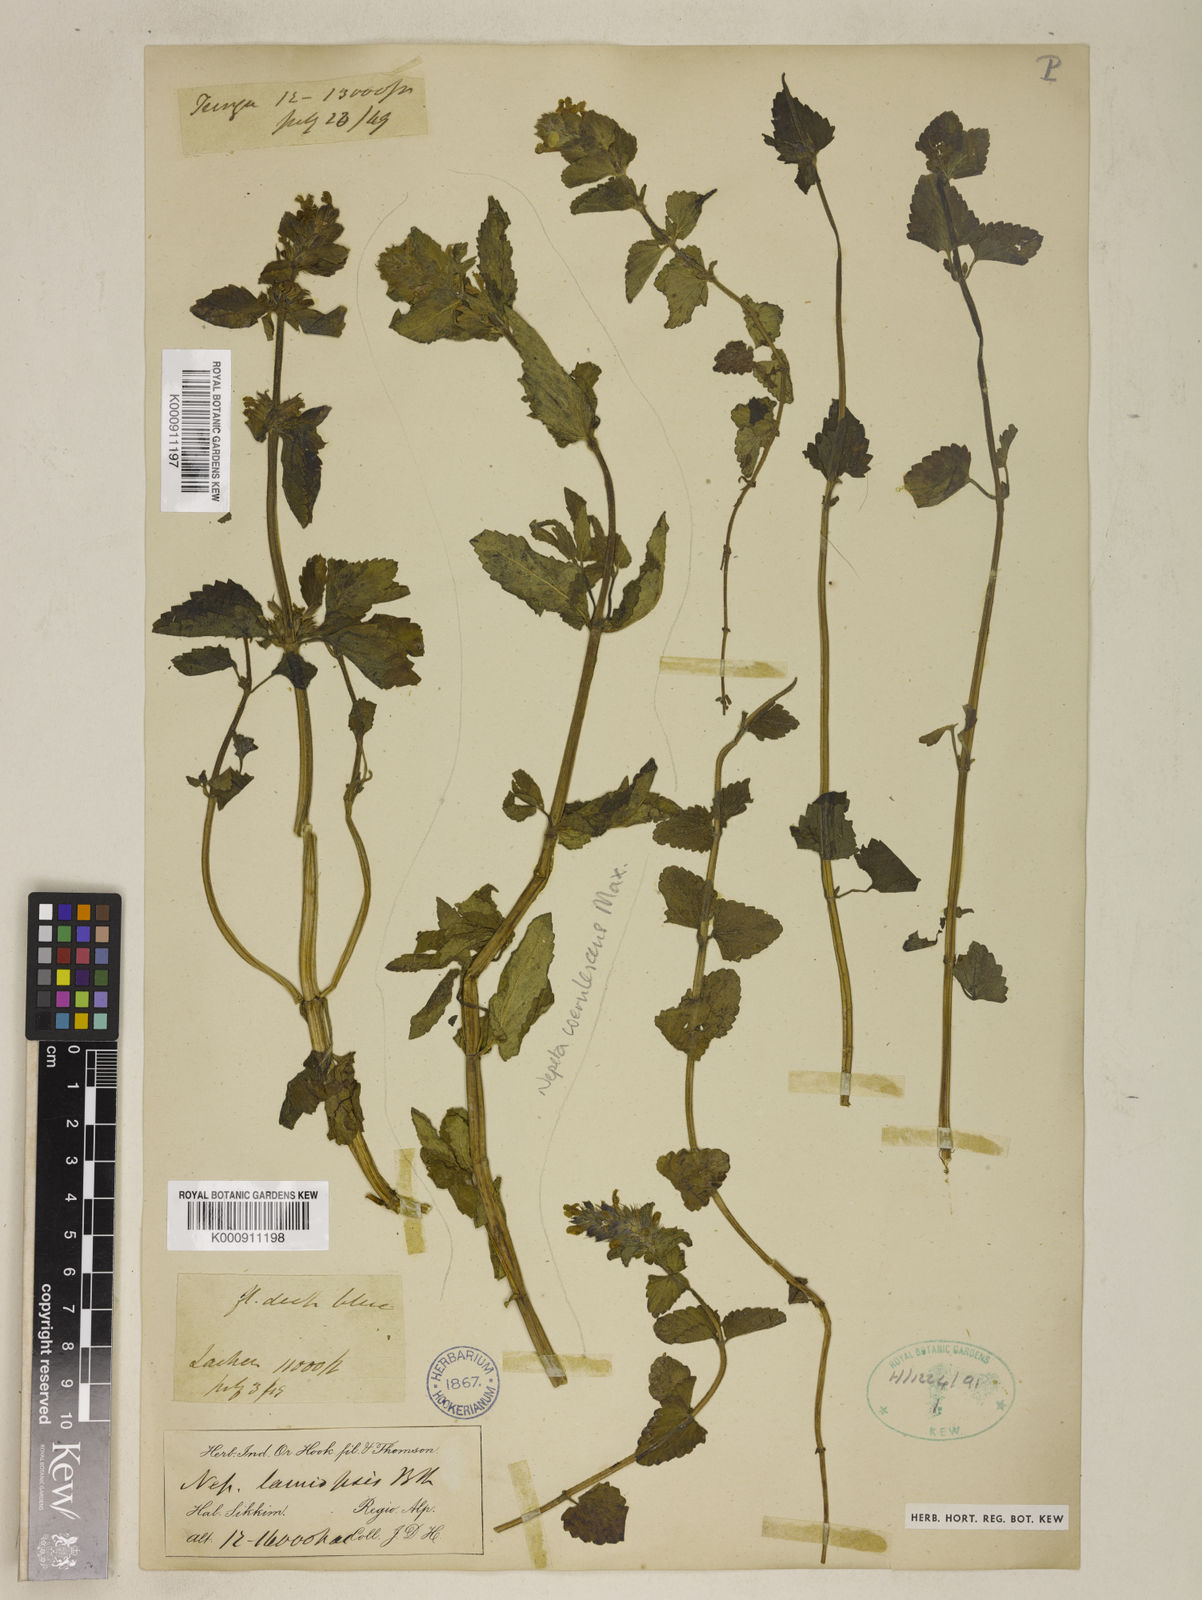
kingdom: Plantae
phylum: Tracheophyta
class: Magnoliopsida
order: Lamiales
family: Lamiaceae
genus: Nepeta
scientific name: Nepeta lamiopsis
